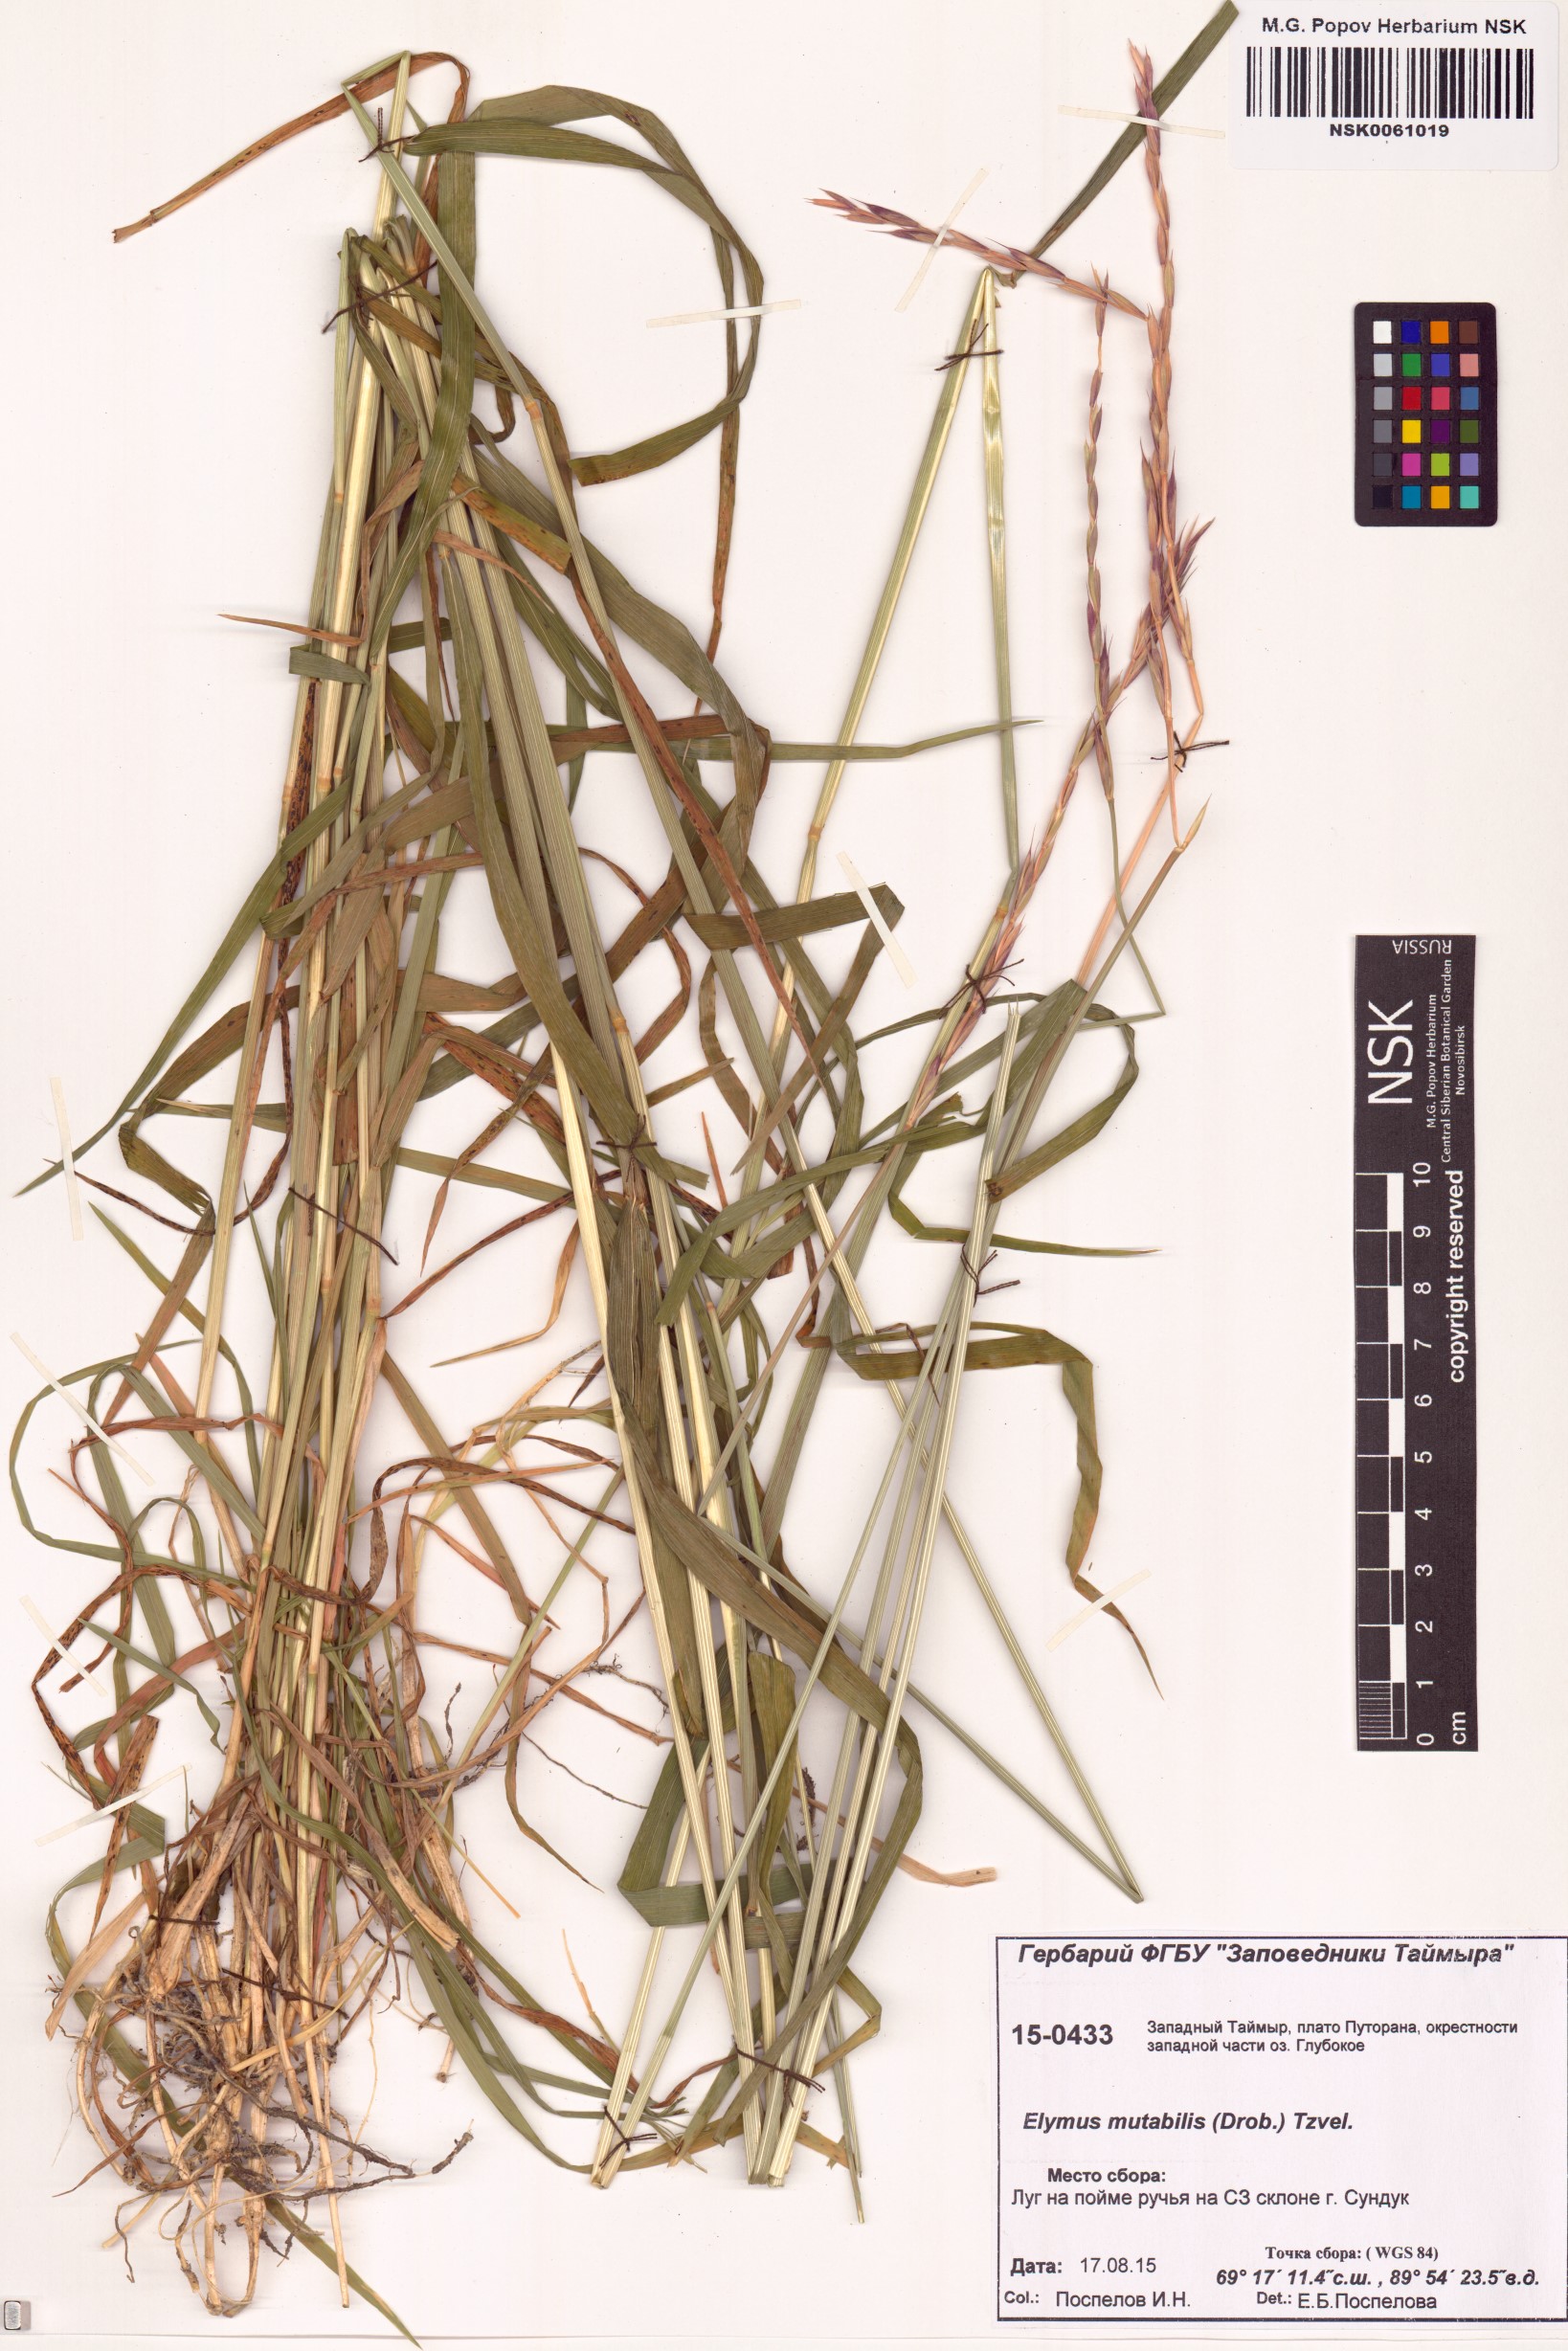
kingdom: Plantae
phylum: Tracheophyta
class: Liliopsida
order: Poales
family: Poaceae
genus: Elymus
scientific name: Elymus mutabilis
